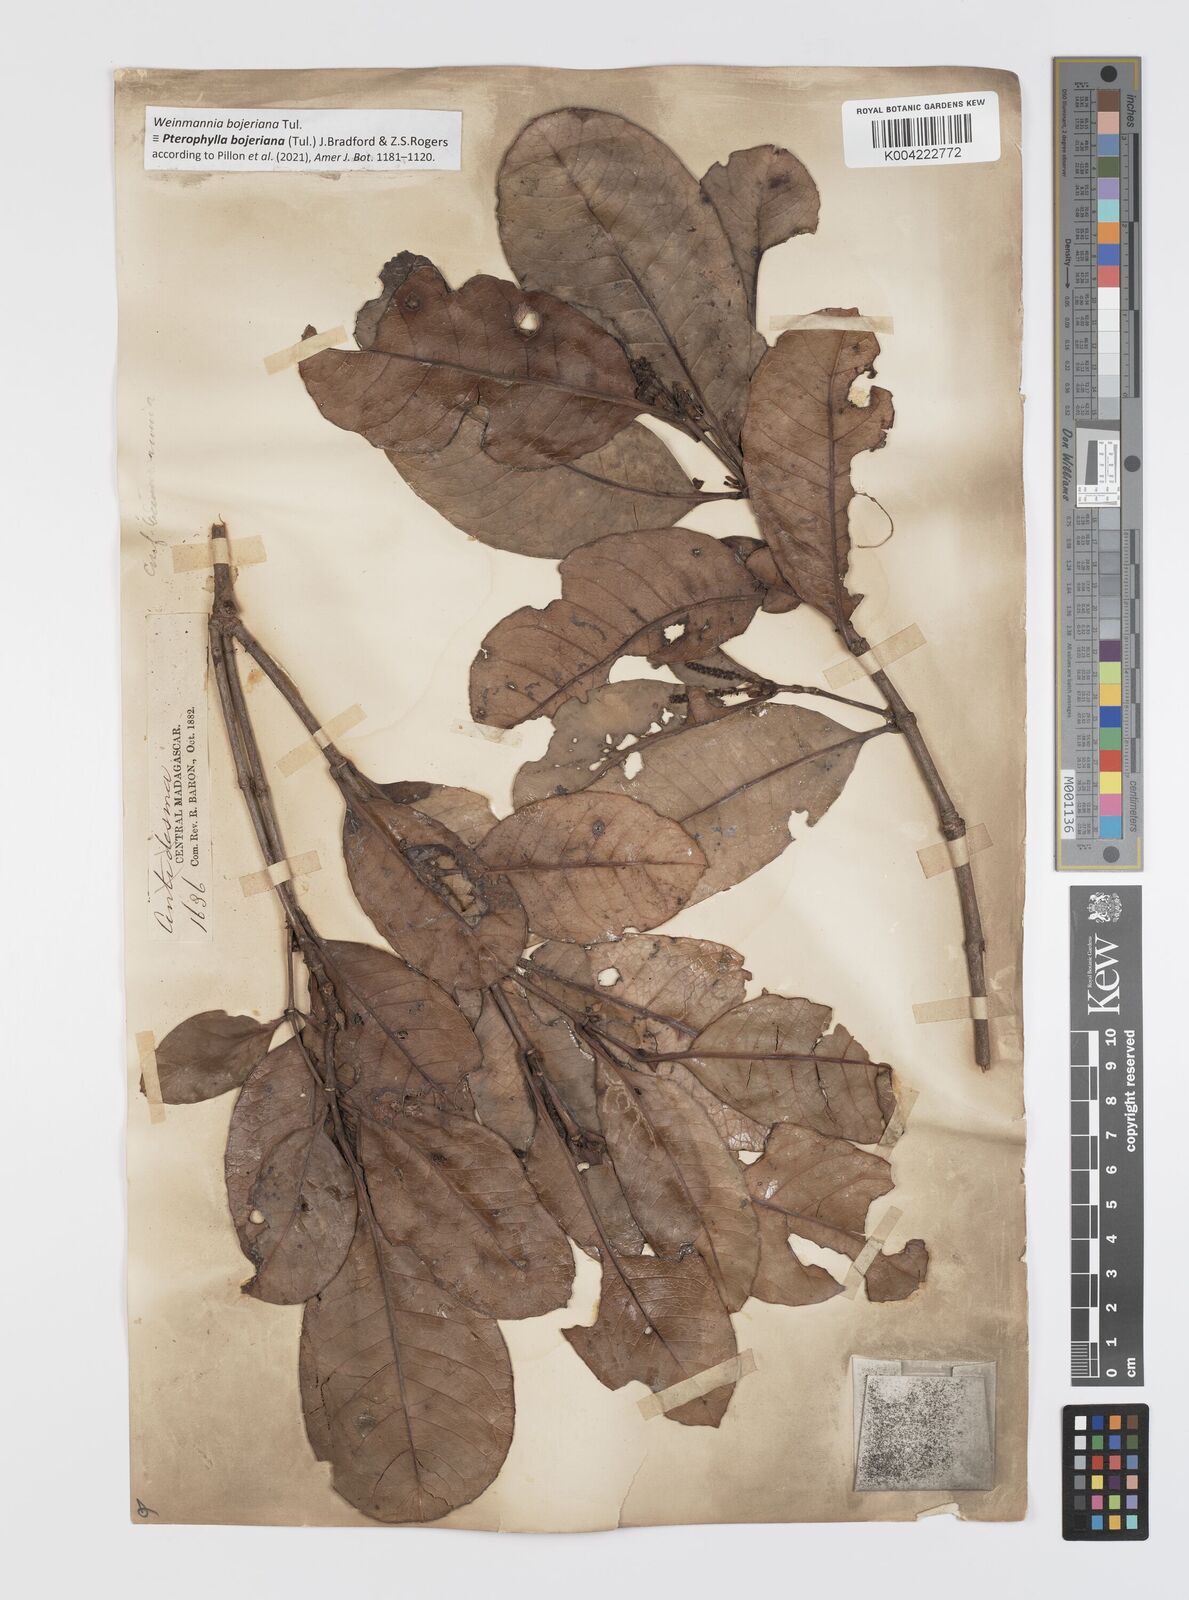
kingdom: Plantae
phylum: Tracheophyta
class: Magnoliopsida
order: Oxalidales
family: Cunoniaceae
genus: Pterophylla
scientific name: Pterophylla
